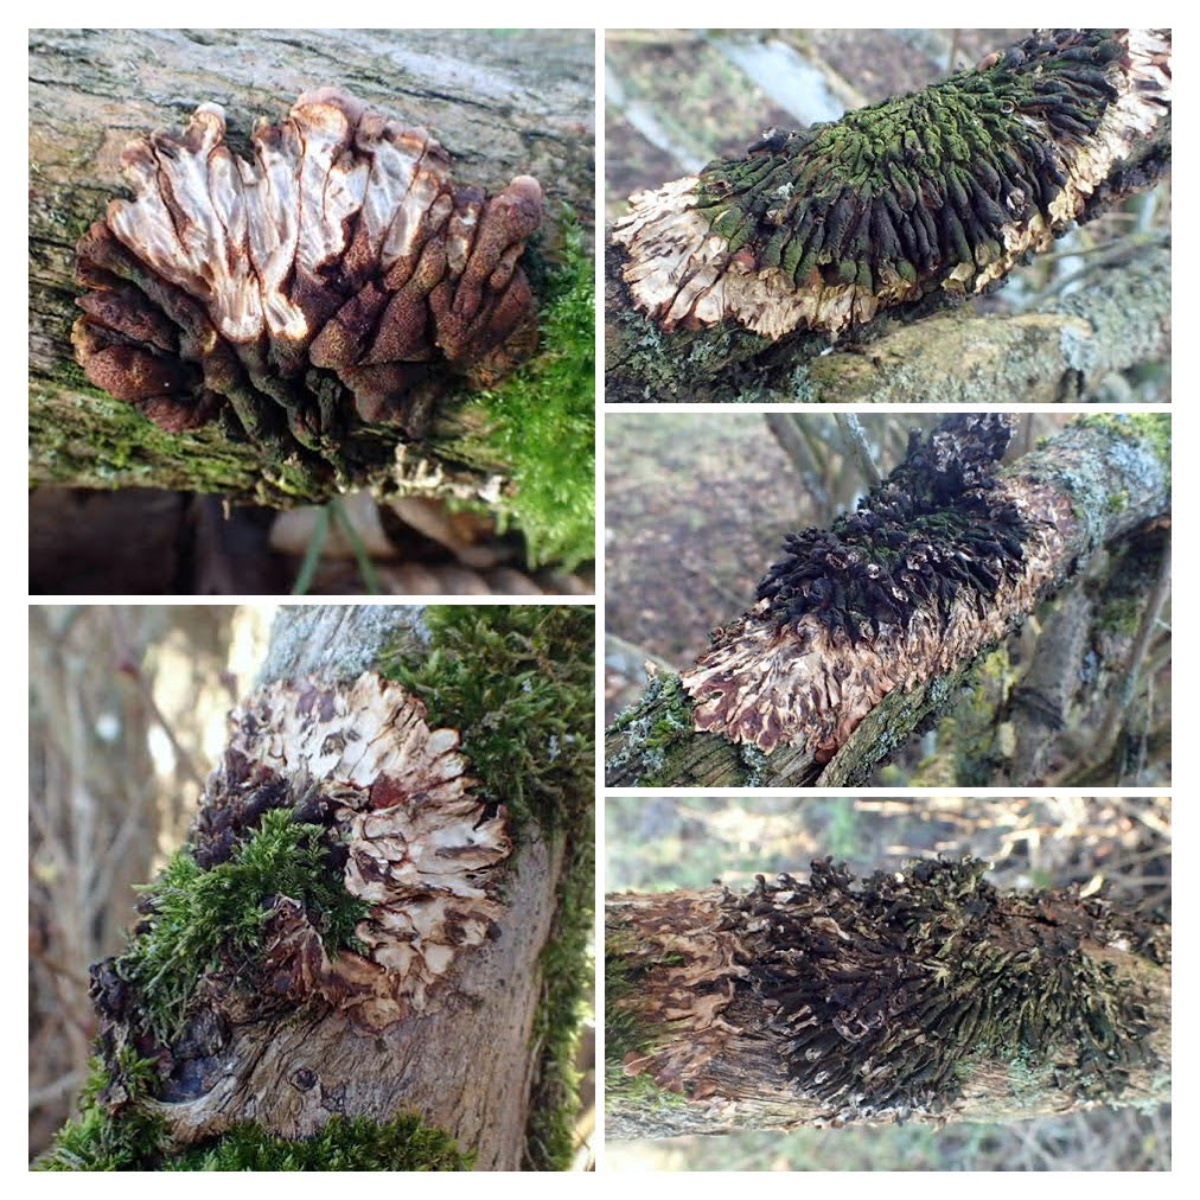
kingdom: Fungi
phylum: Ascomycota
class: Sordariomycetes
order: Hypocreales
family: Hypocreaceae
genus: Hypocreopsis
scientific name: Hypocreopsis lichenoides
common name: pilfinger
